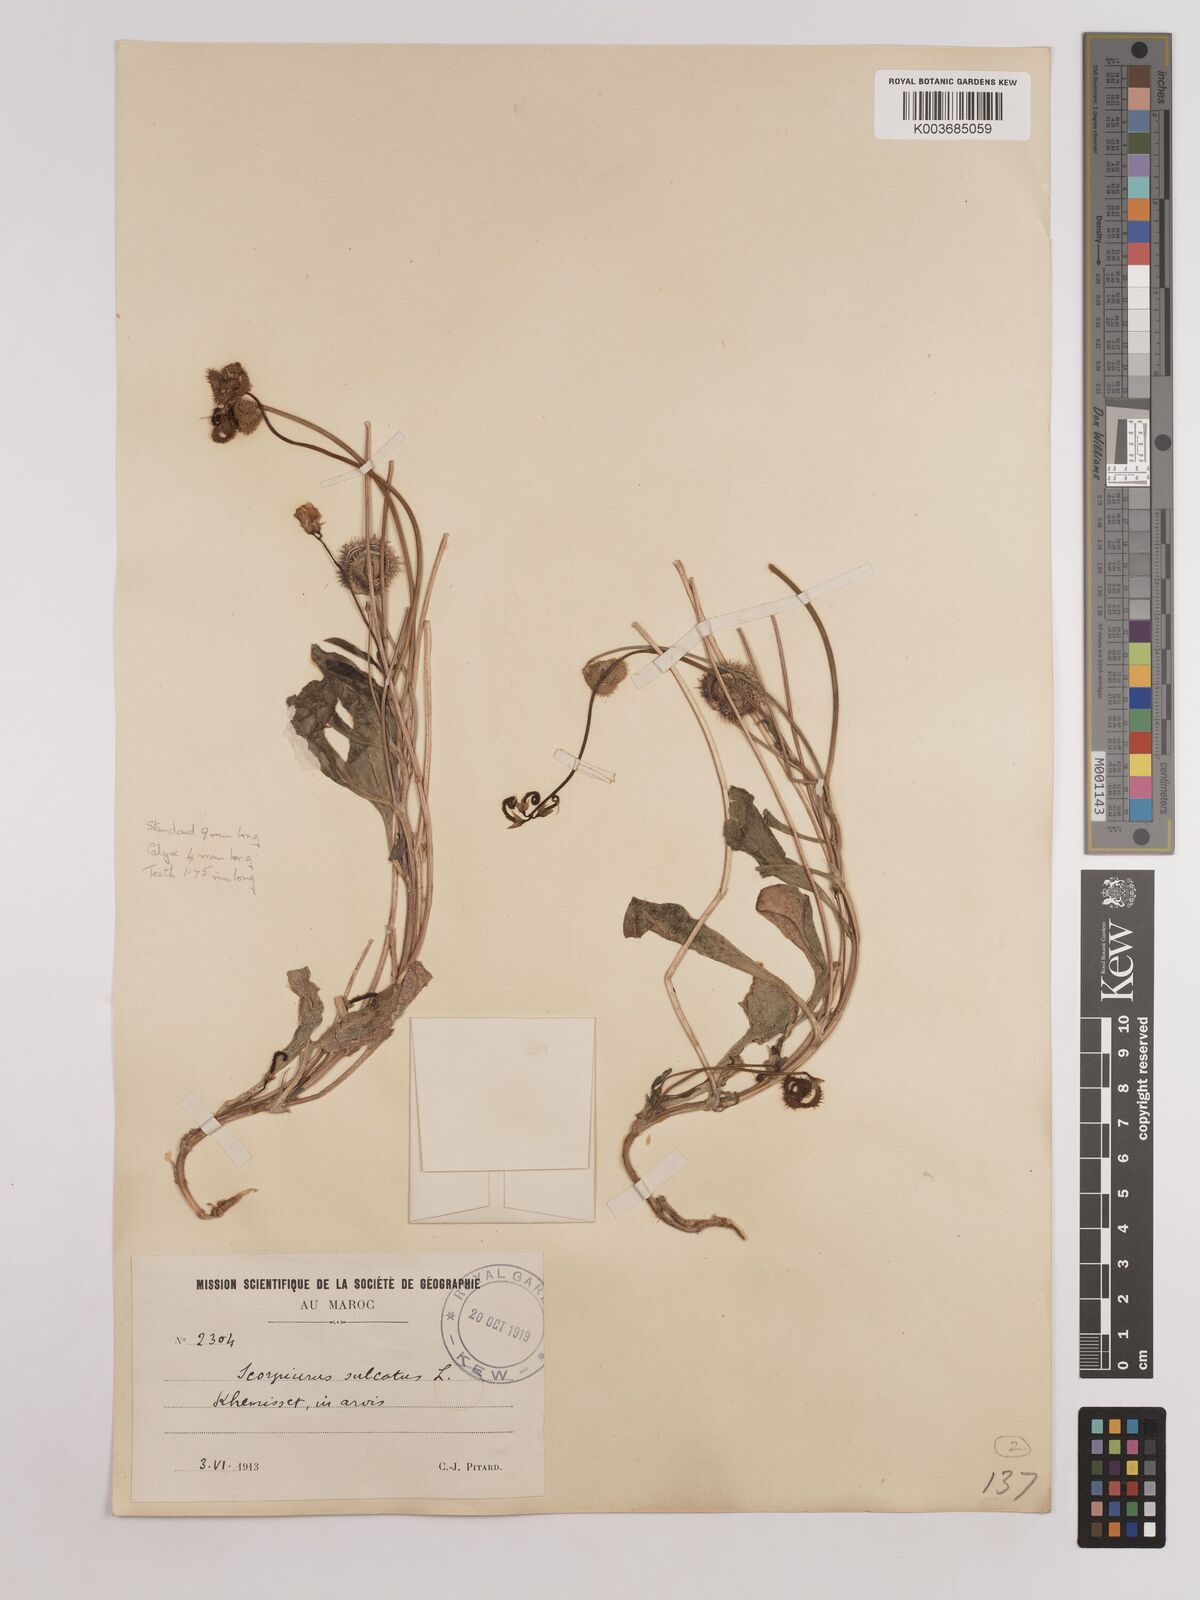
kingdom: Plantae
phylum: Tracheophyta
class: Magnoliopsida
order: Fabales
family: Fabaceae
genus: Scorpiurus
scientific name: Scorpiurus muricatus
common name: Caterpillar-plant
